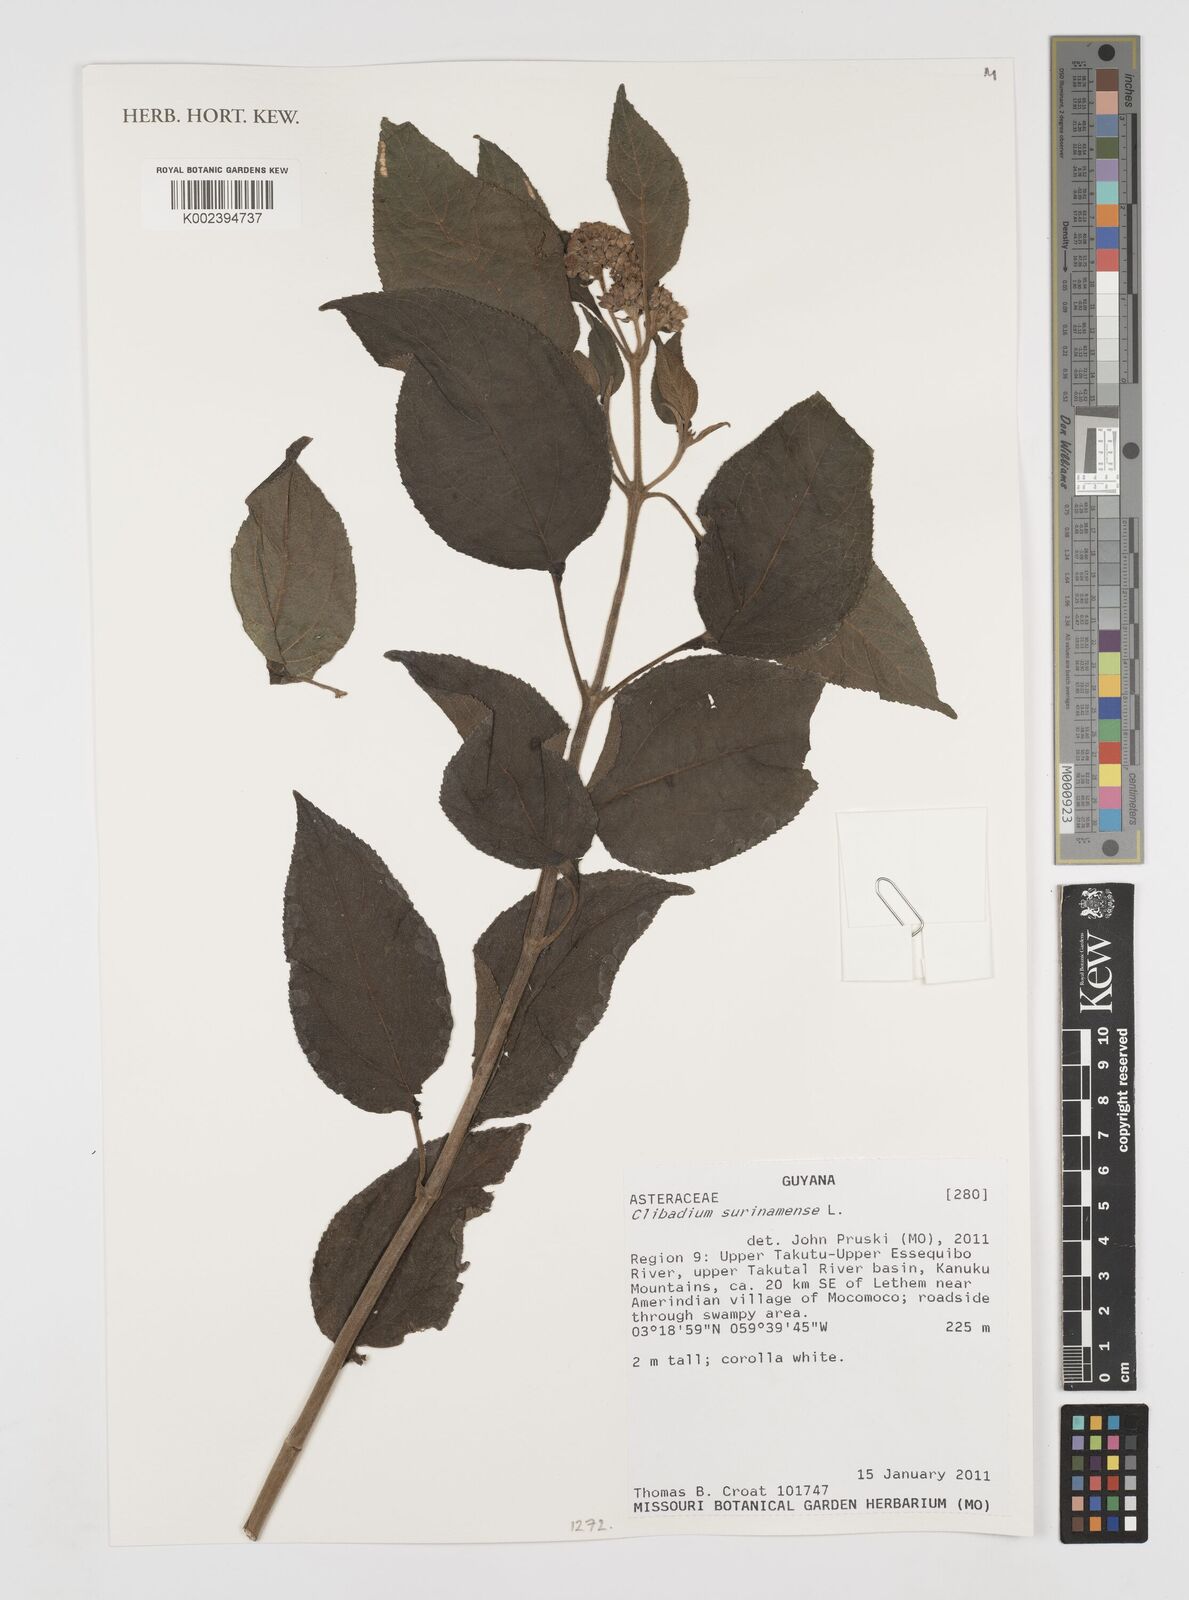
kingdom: Plantae
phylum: Tracheophyta
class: Magnoliopsida
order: Asterales
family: Asteraceae
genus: Clibadium
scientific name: Clibadium surinamense
